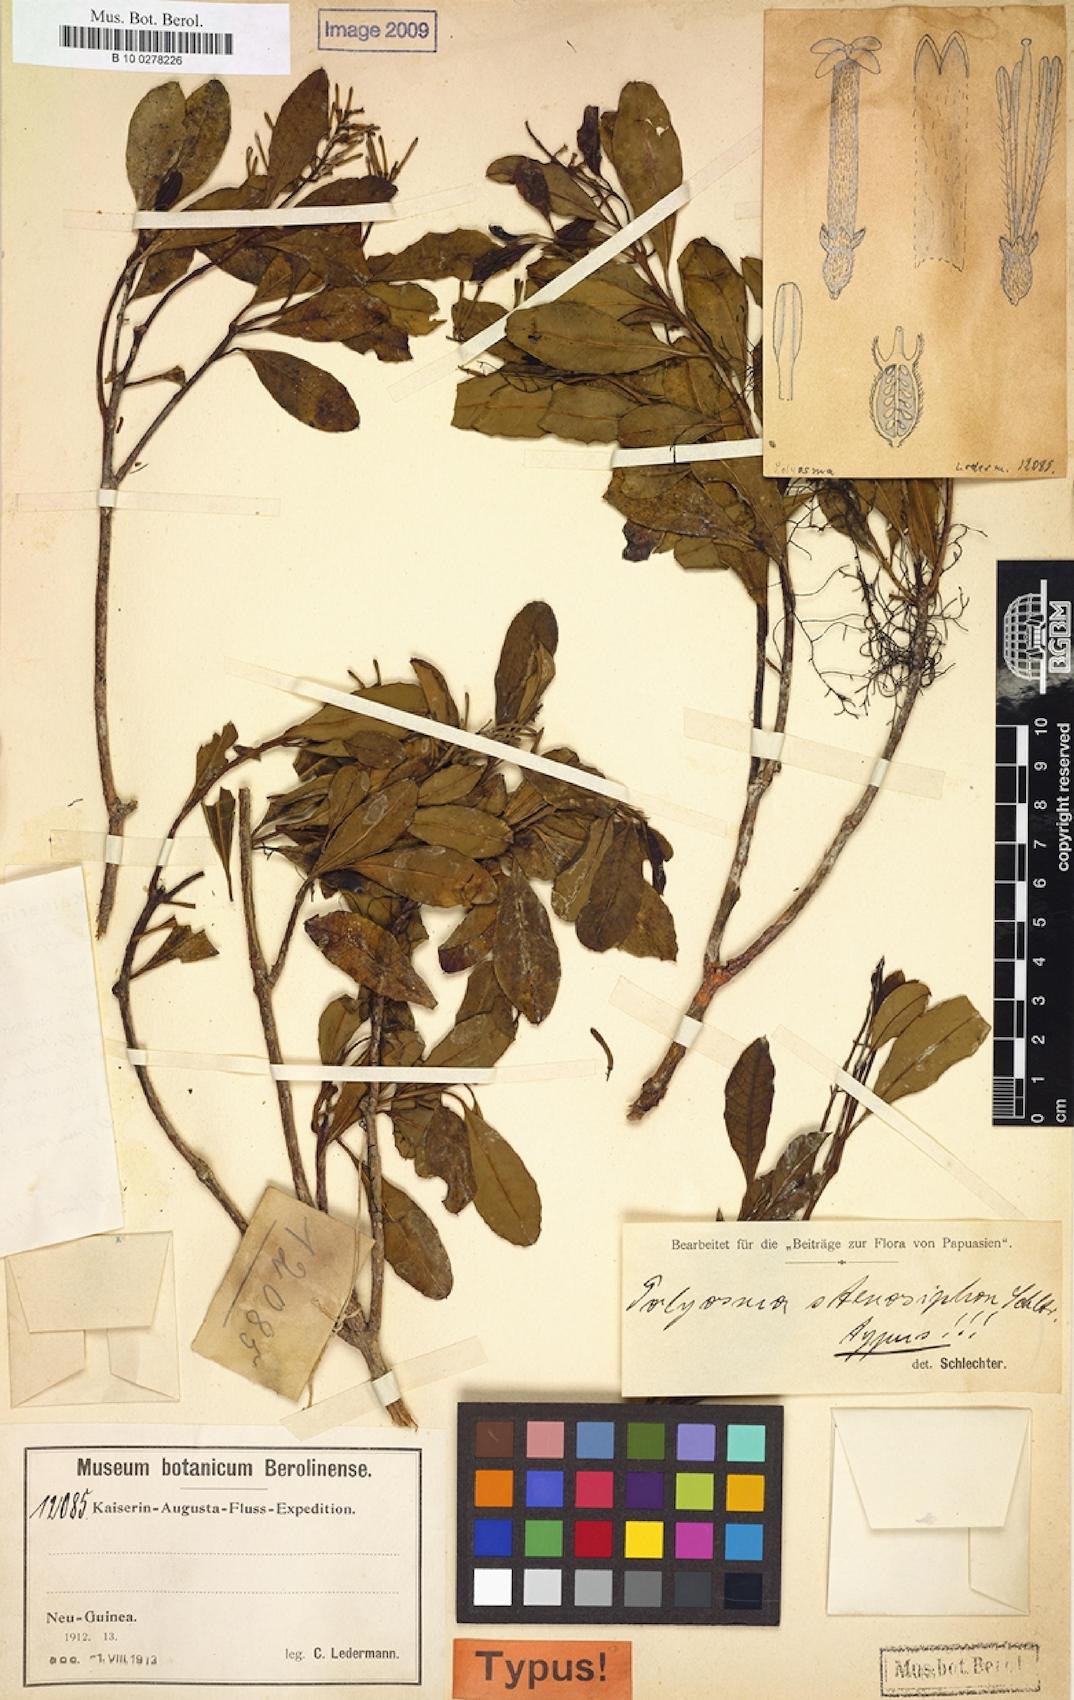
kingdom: Plantae
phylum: Tracheophyta
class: Magnoliopsida
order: Escalloniales
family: Escalloniaceae
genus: Polyosma
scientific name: Polyosma stenosiphon
